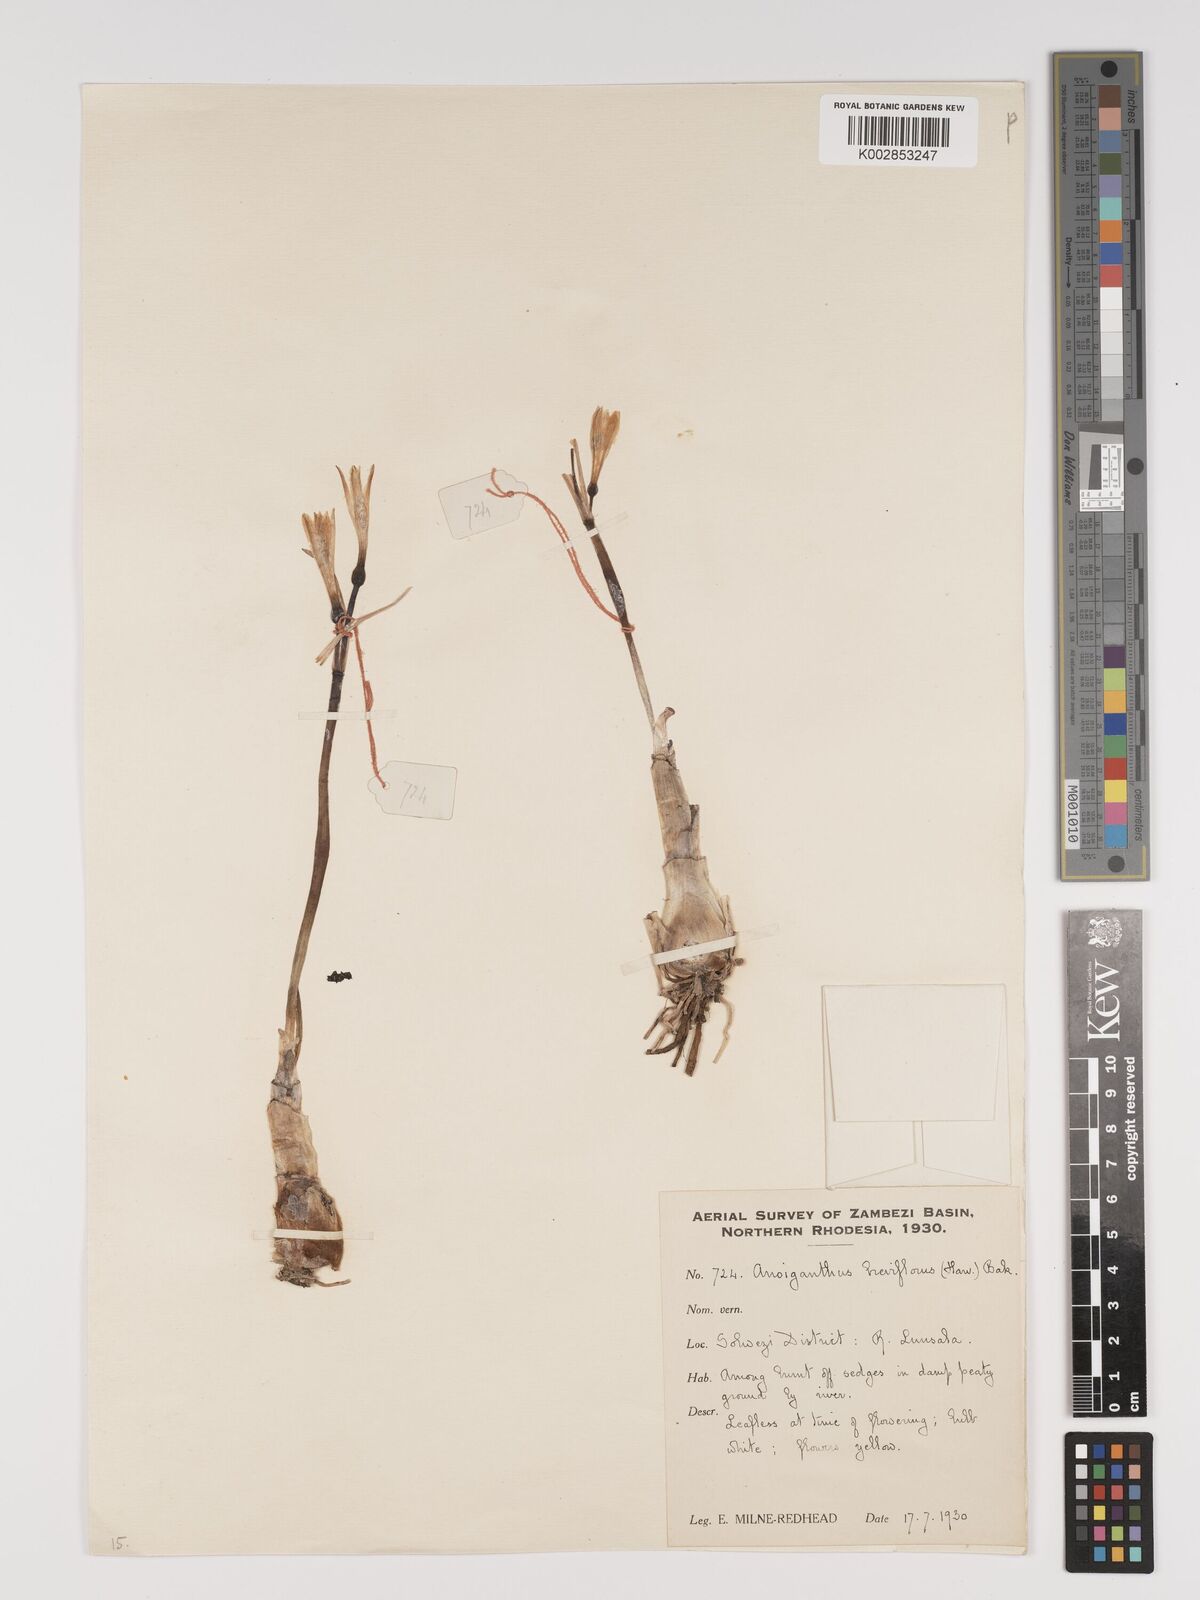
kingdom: Plantae
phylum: Tracheophyta
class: Liliopsida
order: Asparagales
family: Amaryllidaceae
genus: Cyrtanthus
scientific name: Cyrtanthus breviflorus
